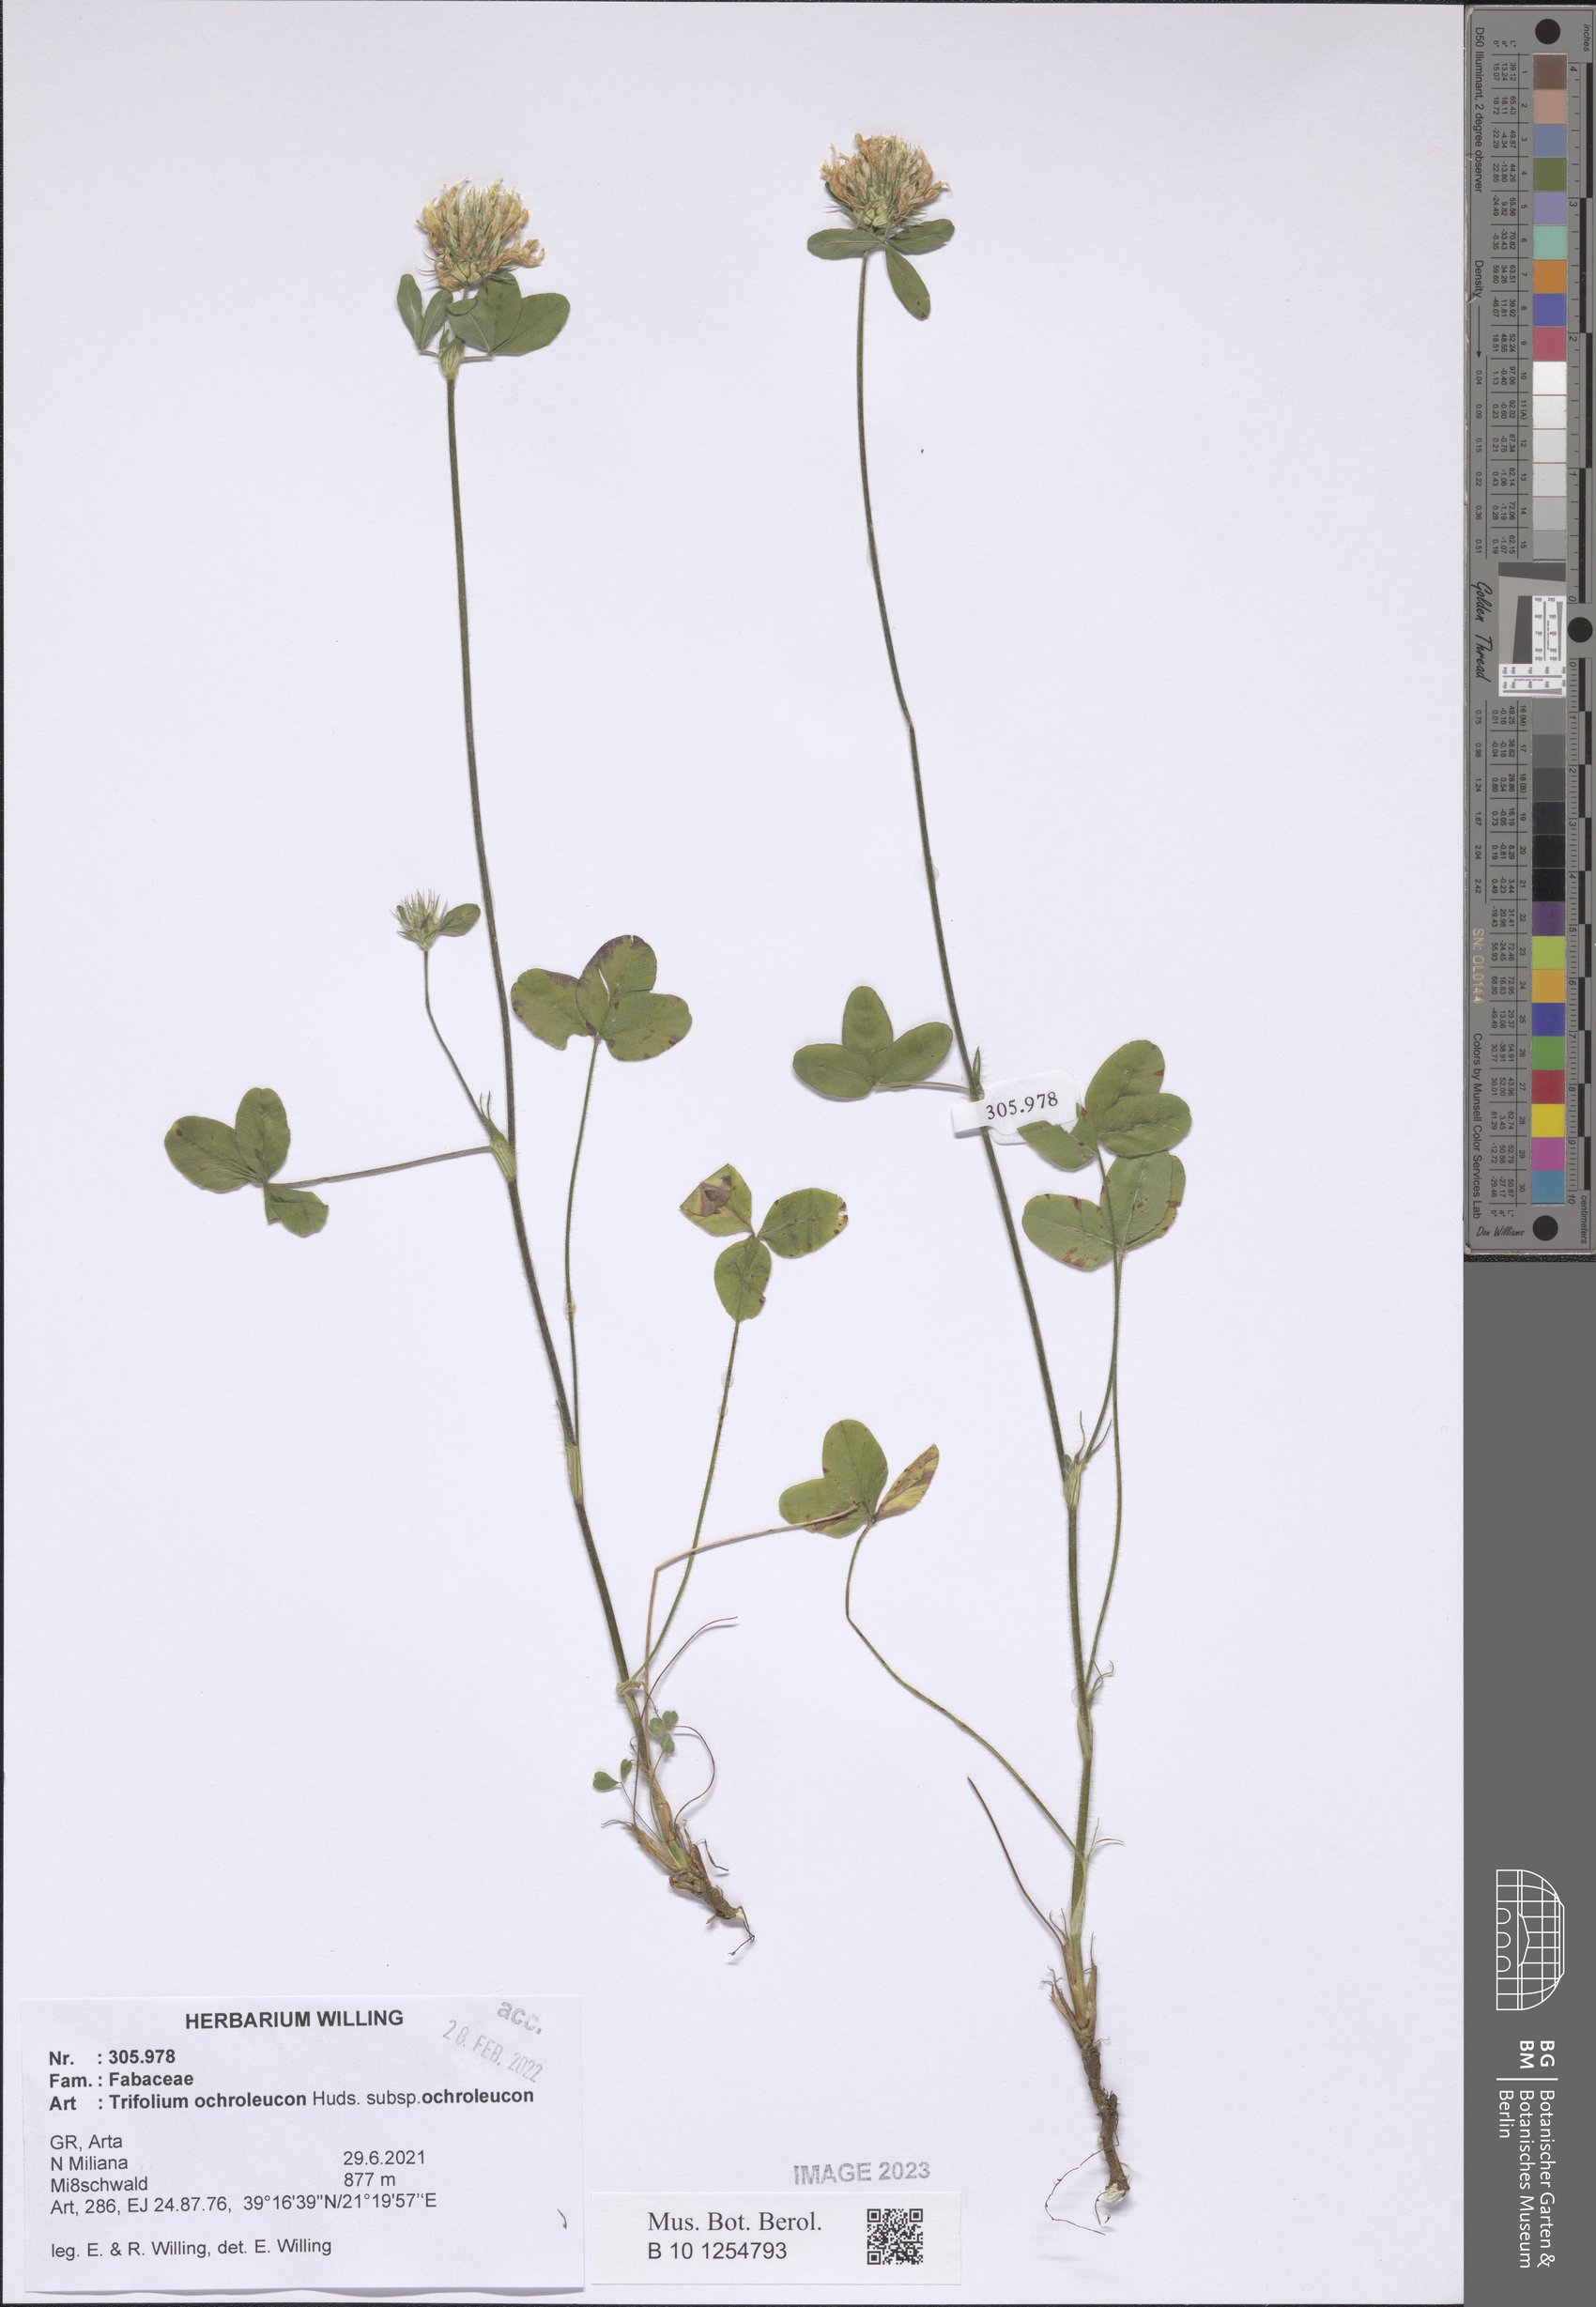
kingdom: Plantae
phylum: Tracheophyta
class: Magnoliopsida
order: Fabales
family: Fabaceae
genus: Trifolium
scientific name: Trifolium ochroleucon
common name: Sulphur clover
